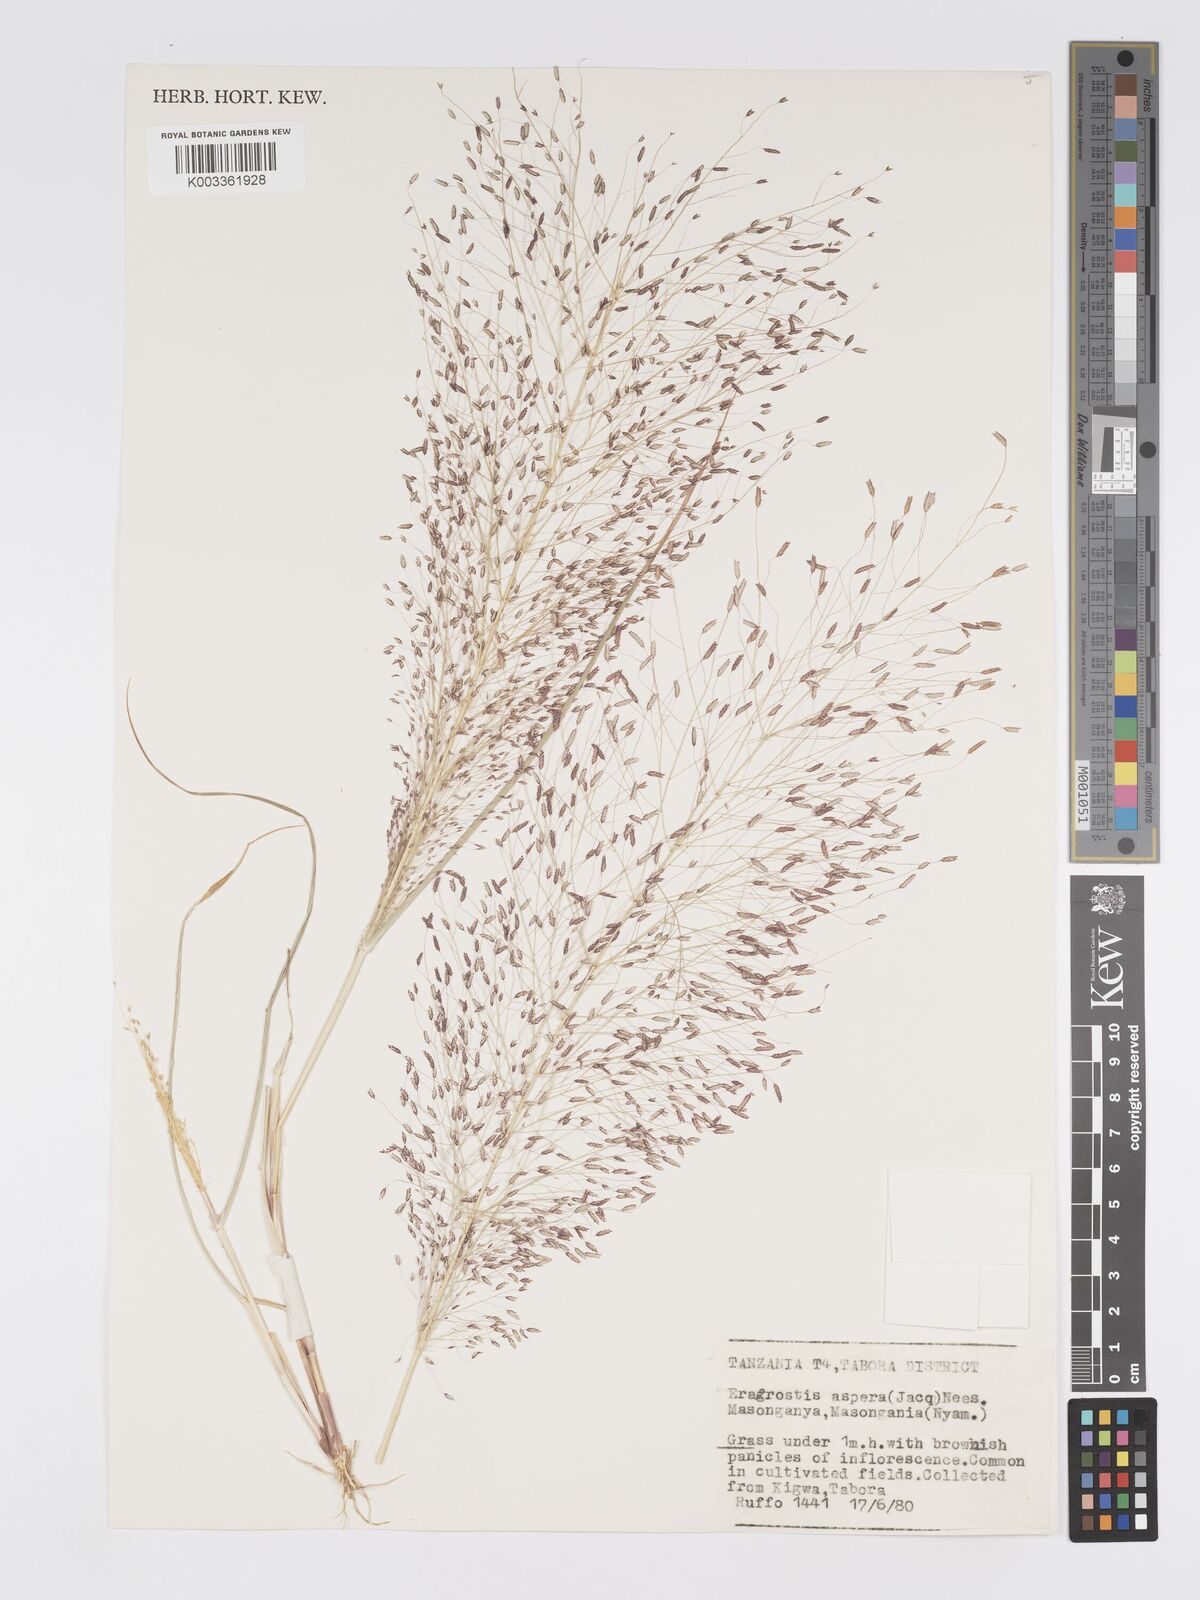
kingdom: Plantae
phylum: Tracheophyta
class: Liliopsida
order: Poales
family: Poaceae
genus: Eragrostis
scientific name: Eragrostis aspera
